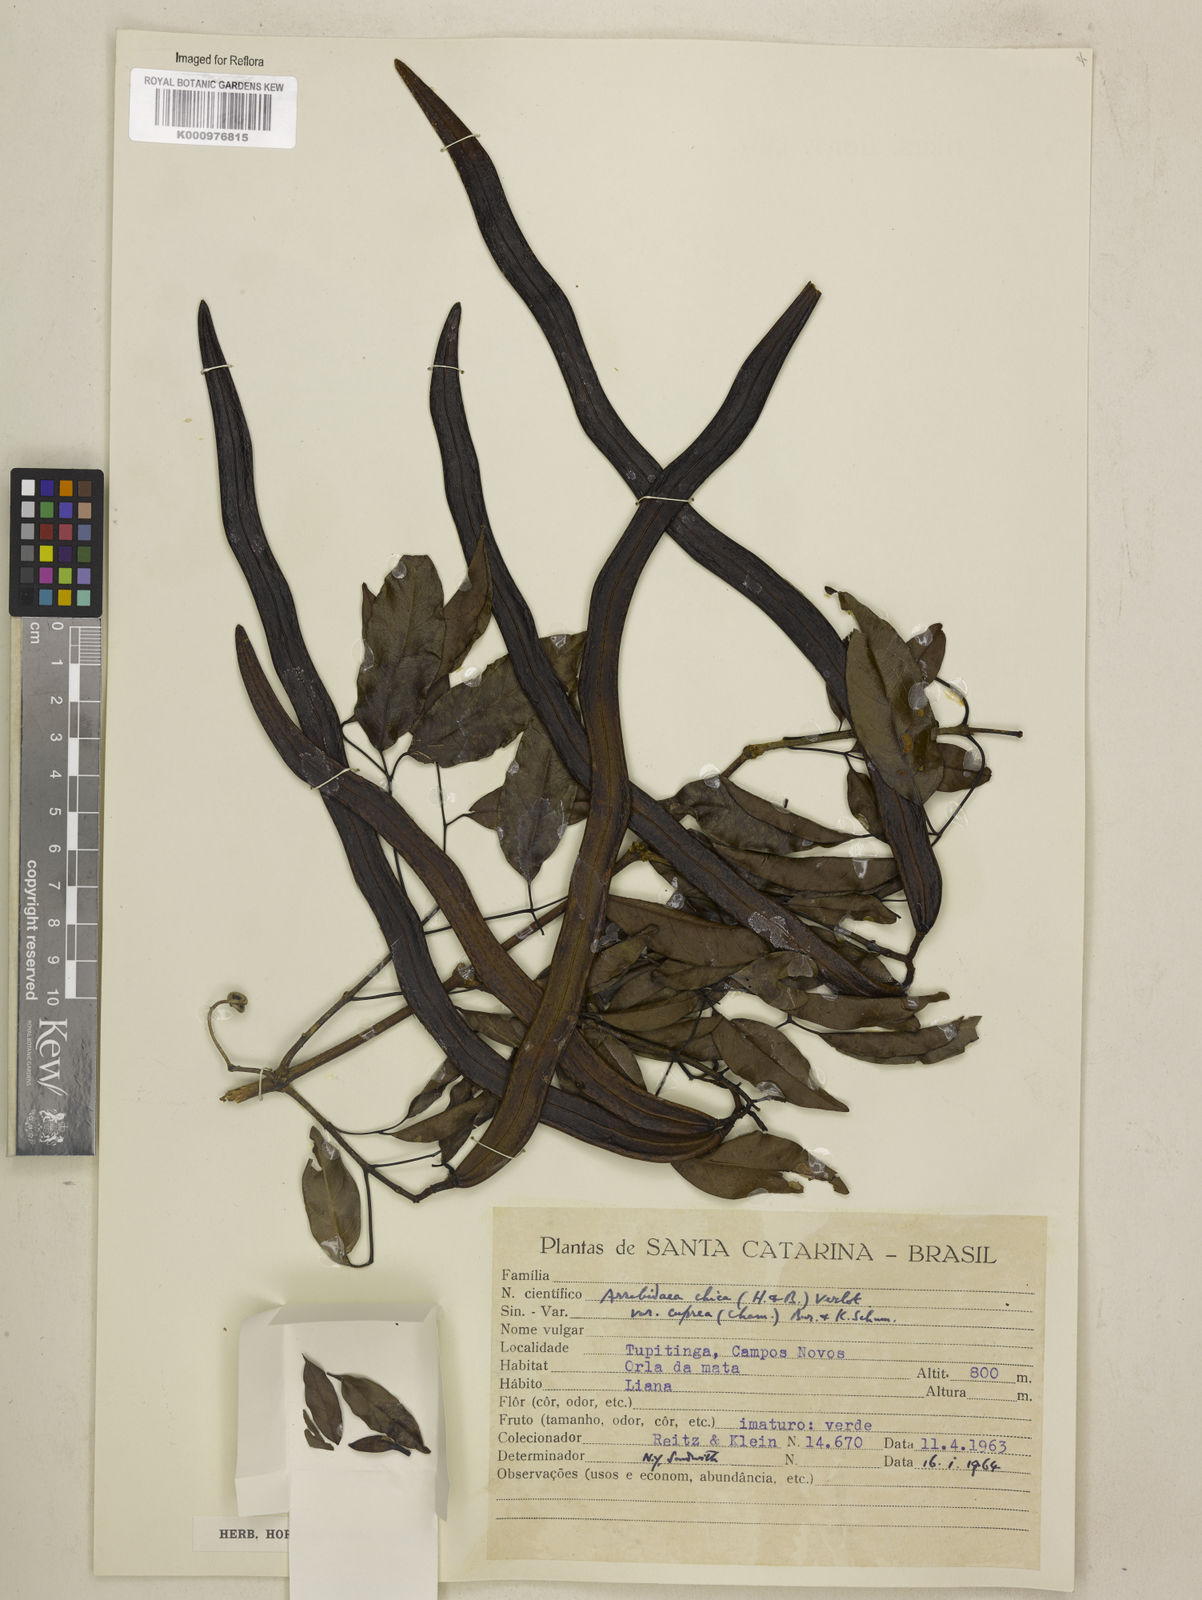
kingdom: Plantae
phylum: Tracheophyta
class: Magnoliopsida
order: Lamiales
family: Bignoniaceae
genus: Fridericia
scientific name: Fridericia chica
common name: Cricketvine
